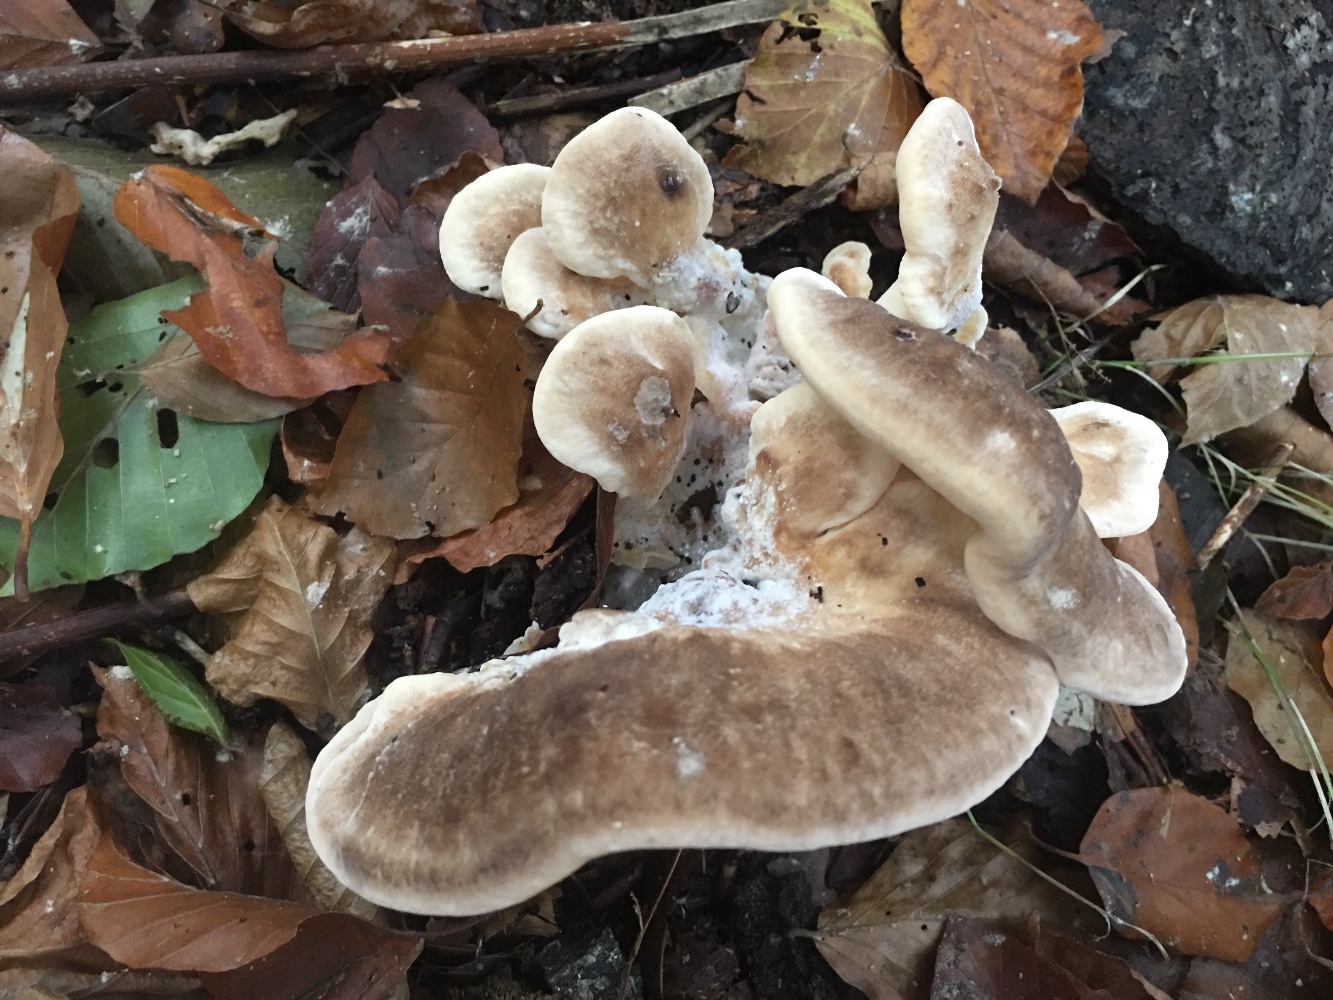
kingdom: Fungi
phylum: Basidiomycota
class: Agaricomycetes
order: Polyporales
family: Meripilaceae
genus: Meripilus
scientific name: Meripilus giganteus
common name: kæmpeporesvamp
